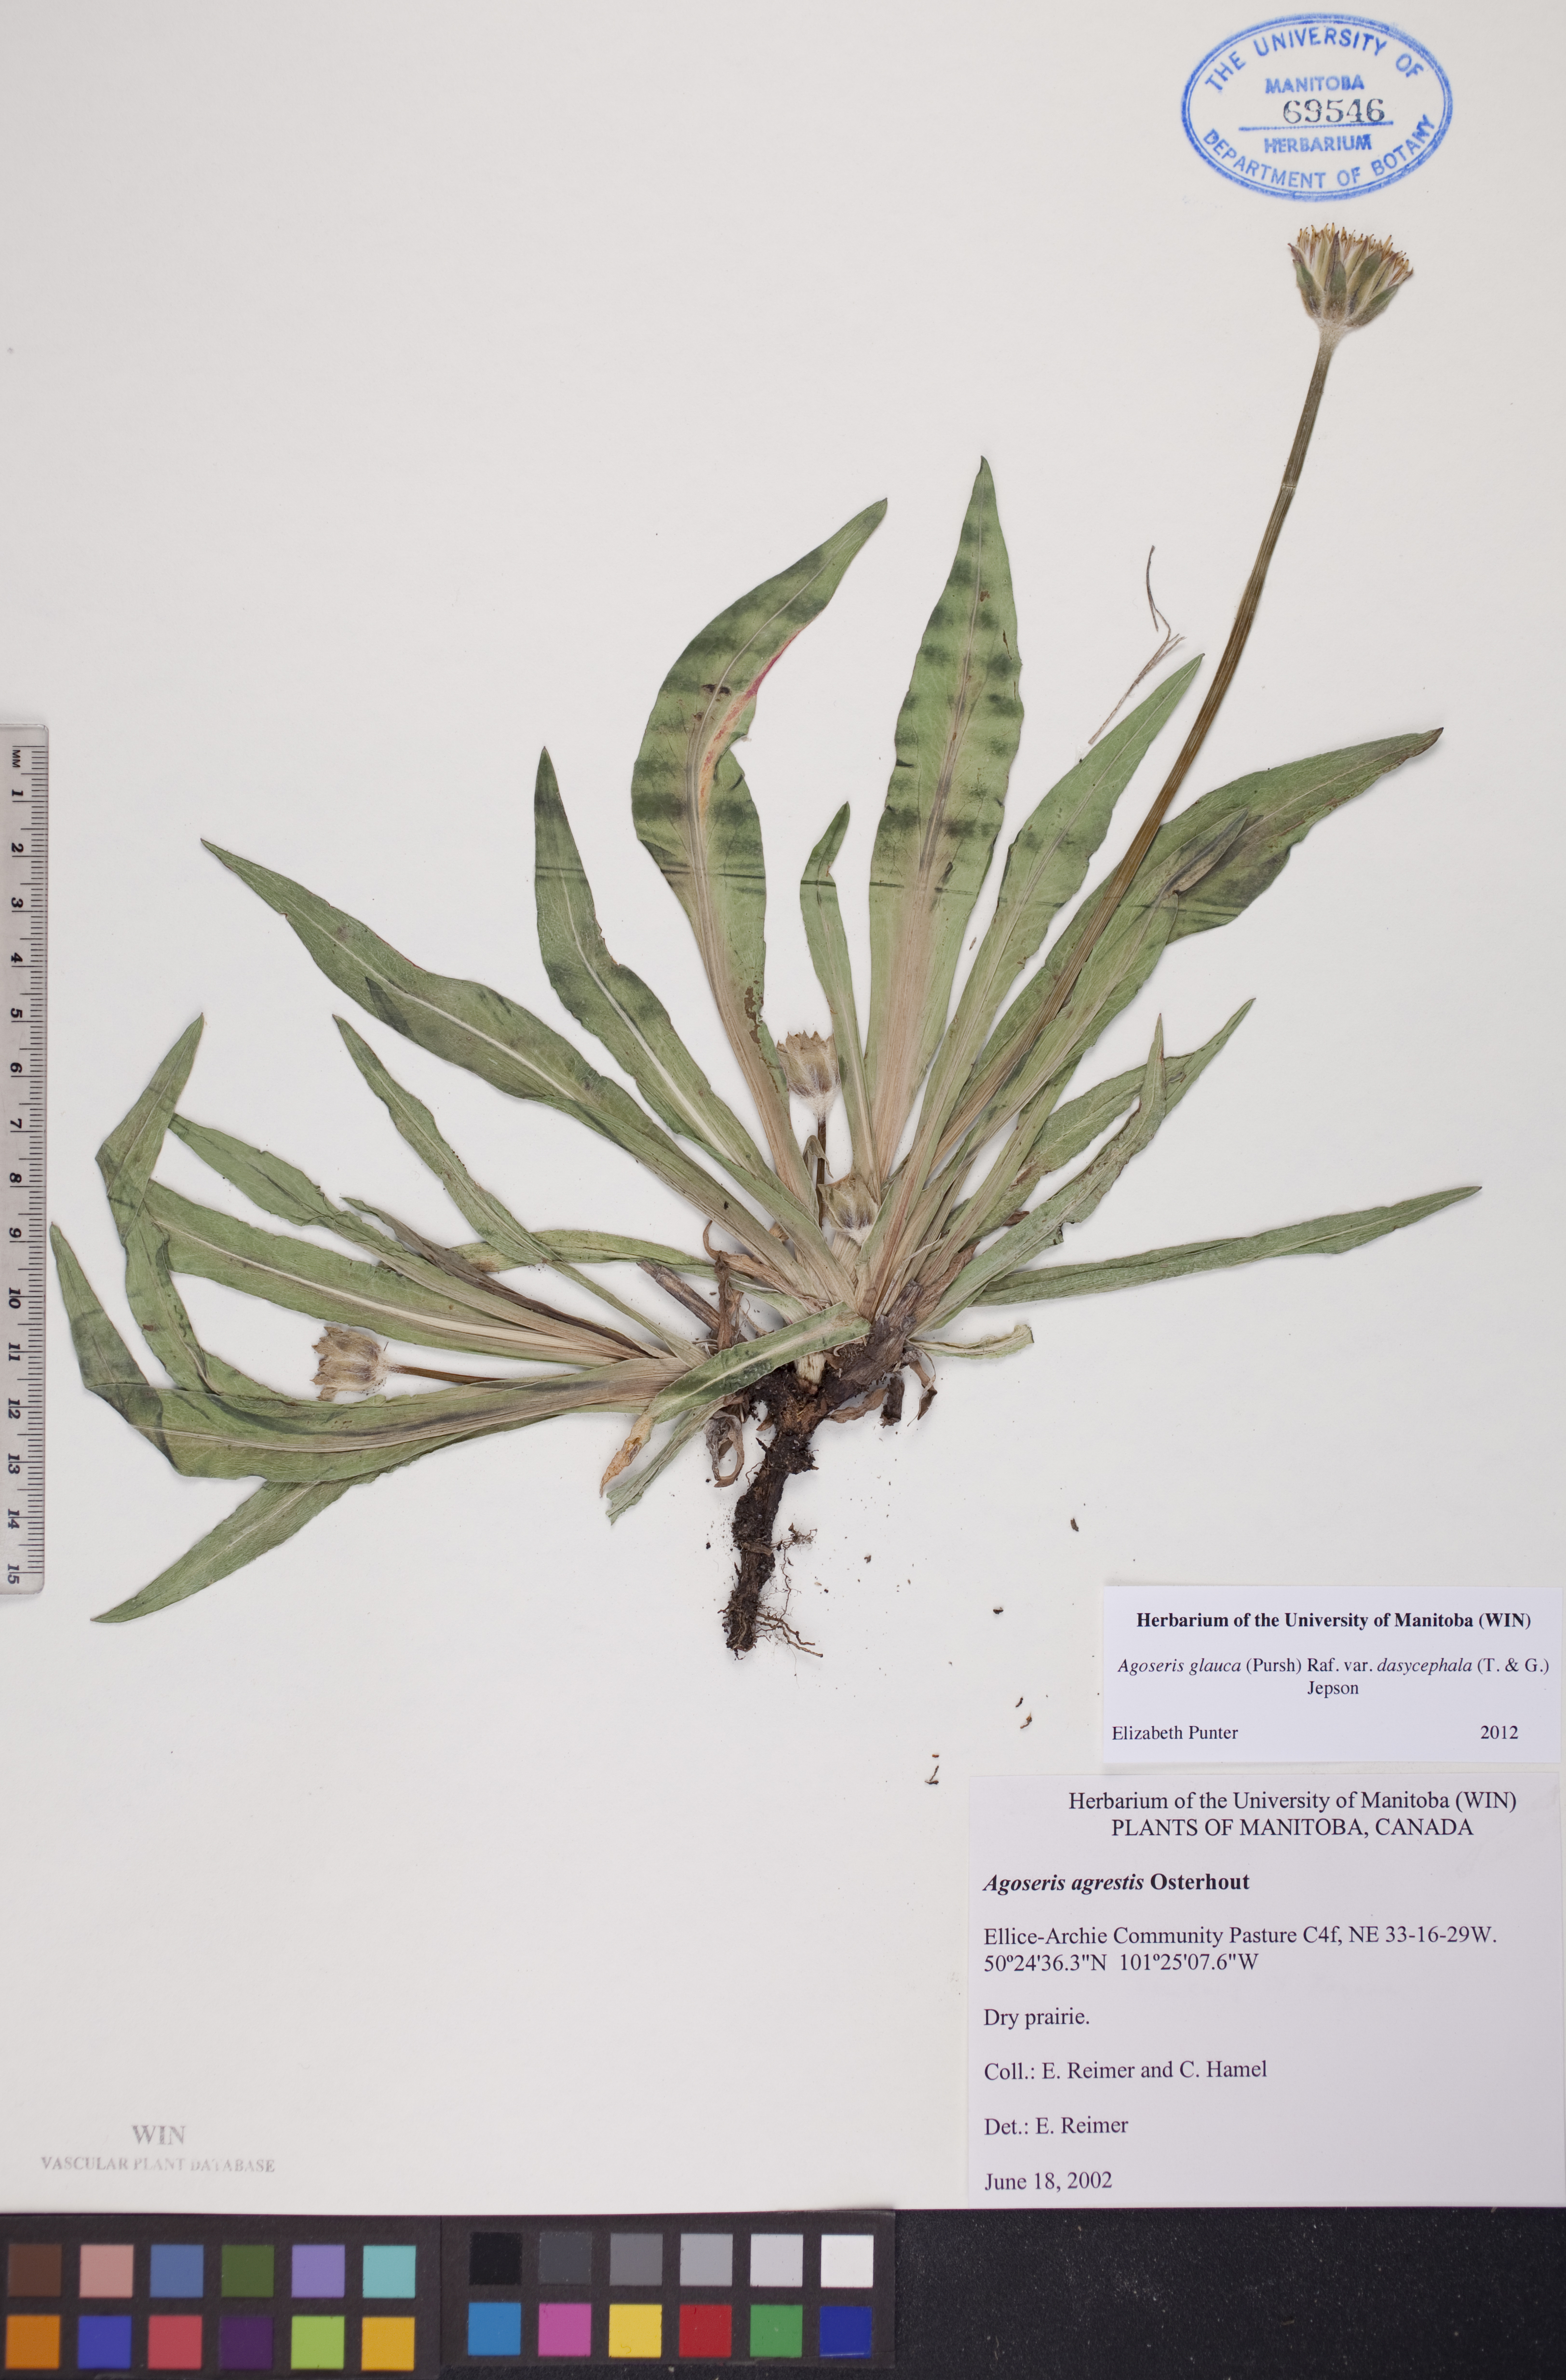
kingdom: Plantae
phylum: Tracheophyta
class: Magnoliopsida
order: Asterales
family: Asteraceae
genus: Agoseris
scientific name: Agoseris glauca
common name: Prairie agoseris
